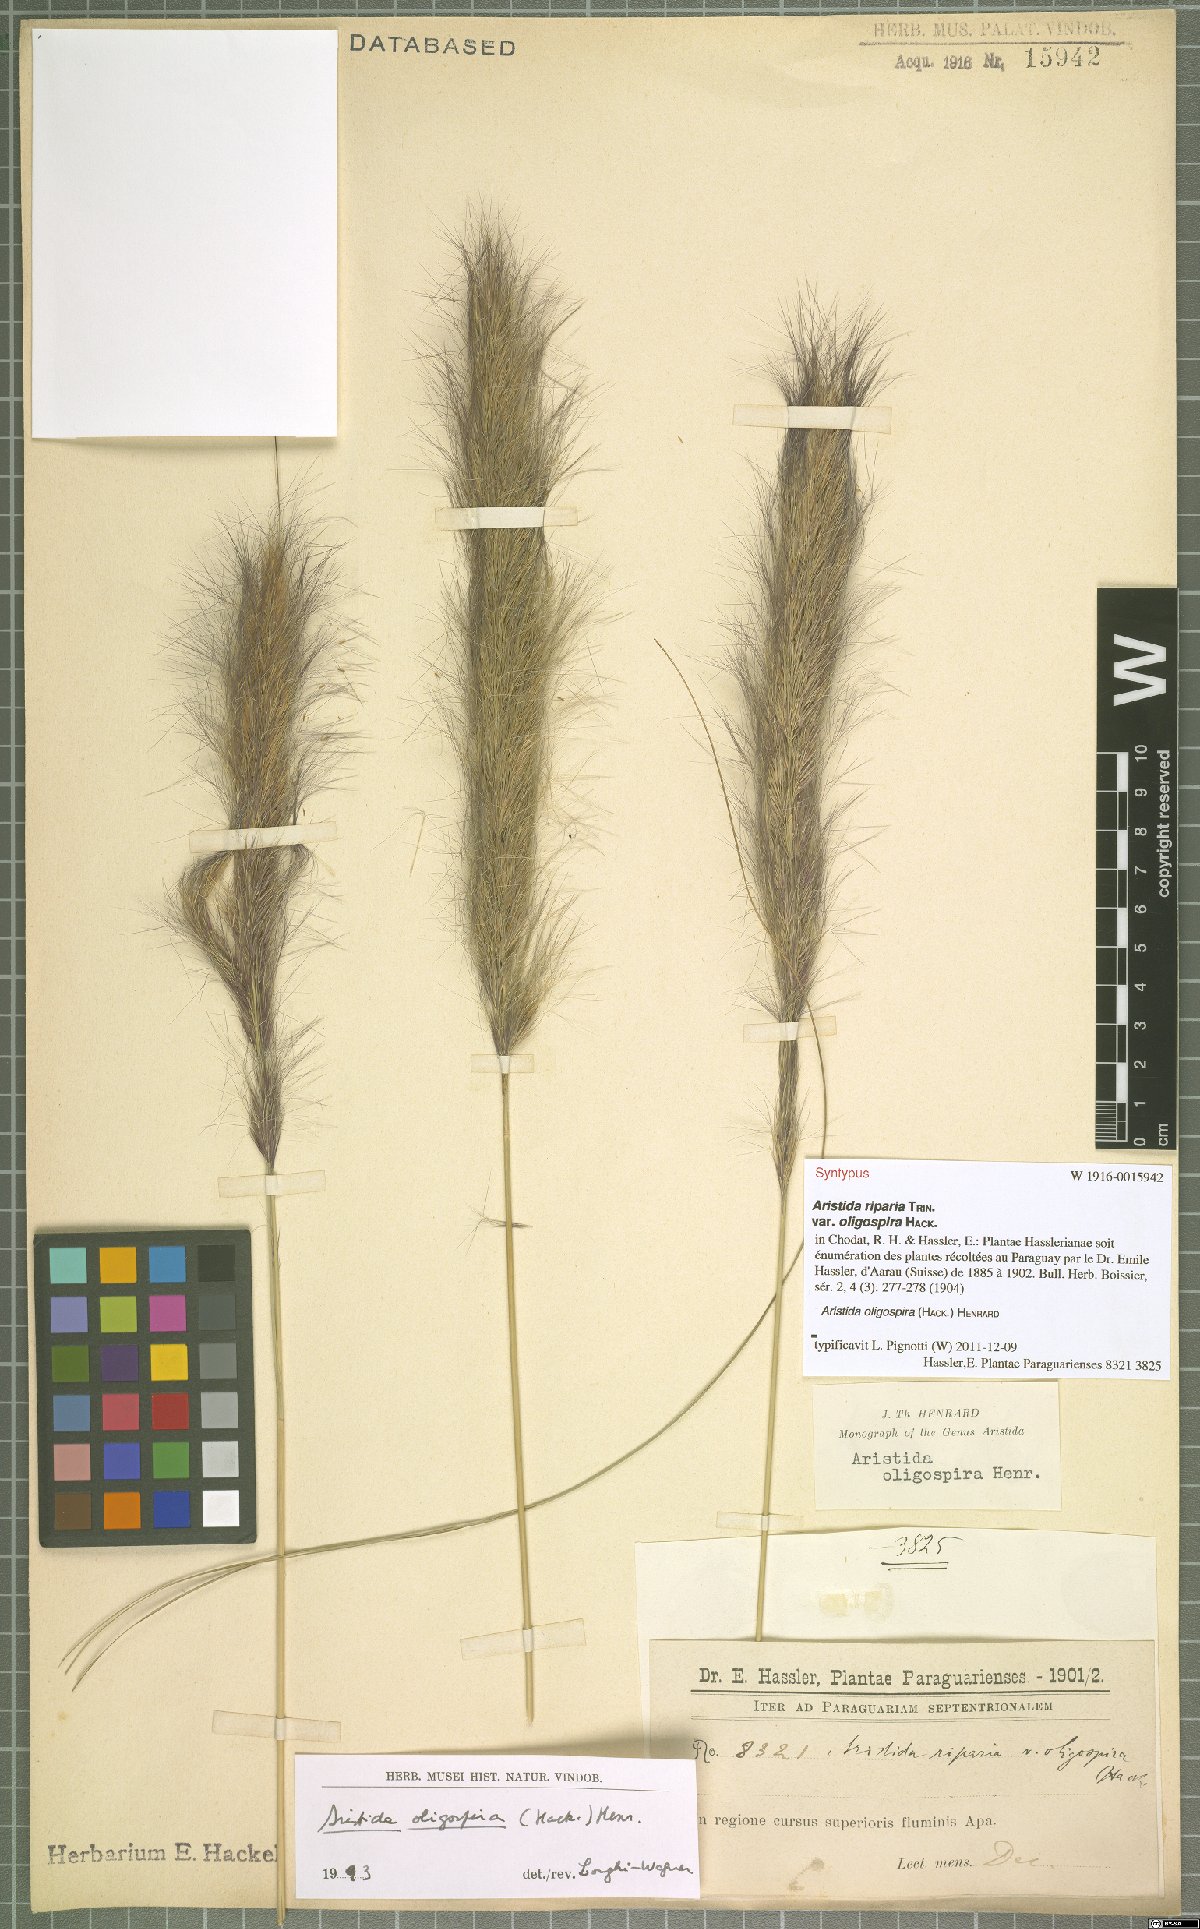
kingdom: Plantae
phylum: Tracheophyta
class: Liliopsida
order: Poales
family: Poaceae
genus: Aristida
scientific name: Aristida oligospira
